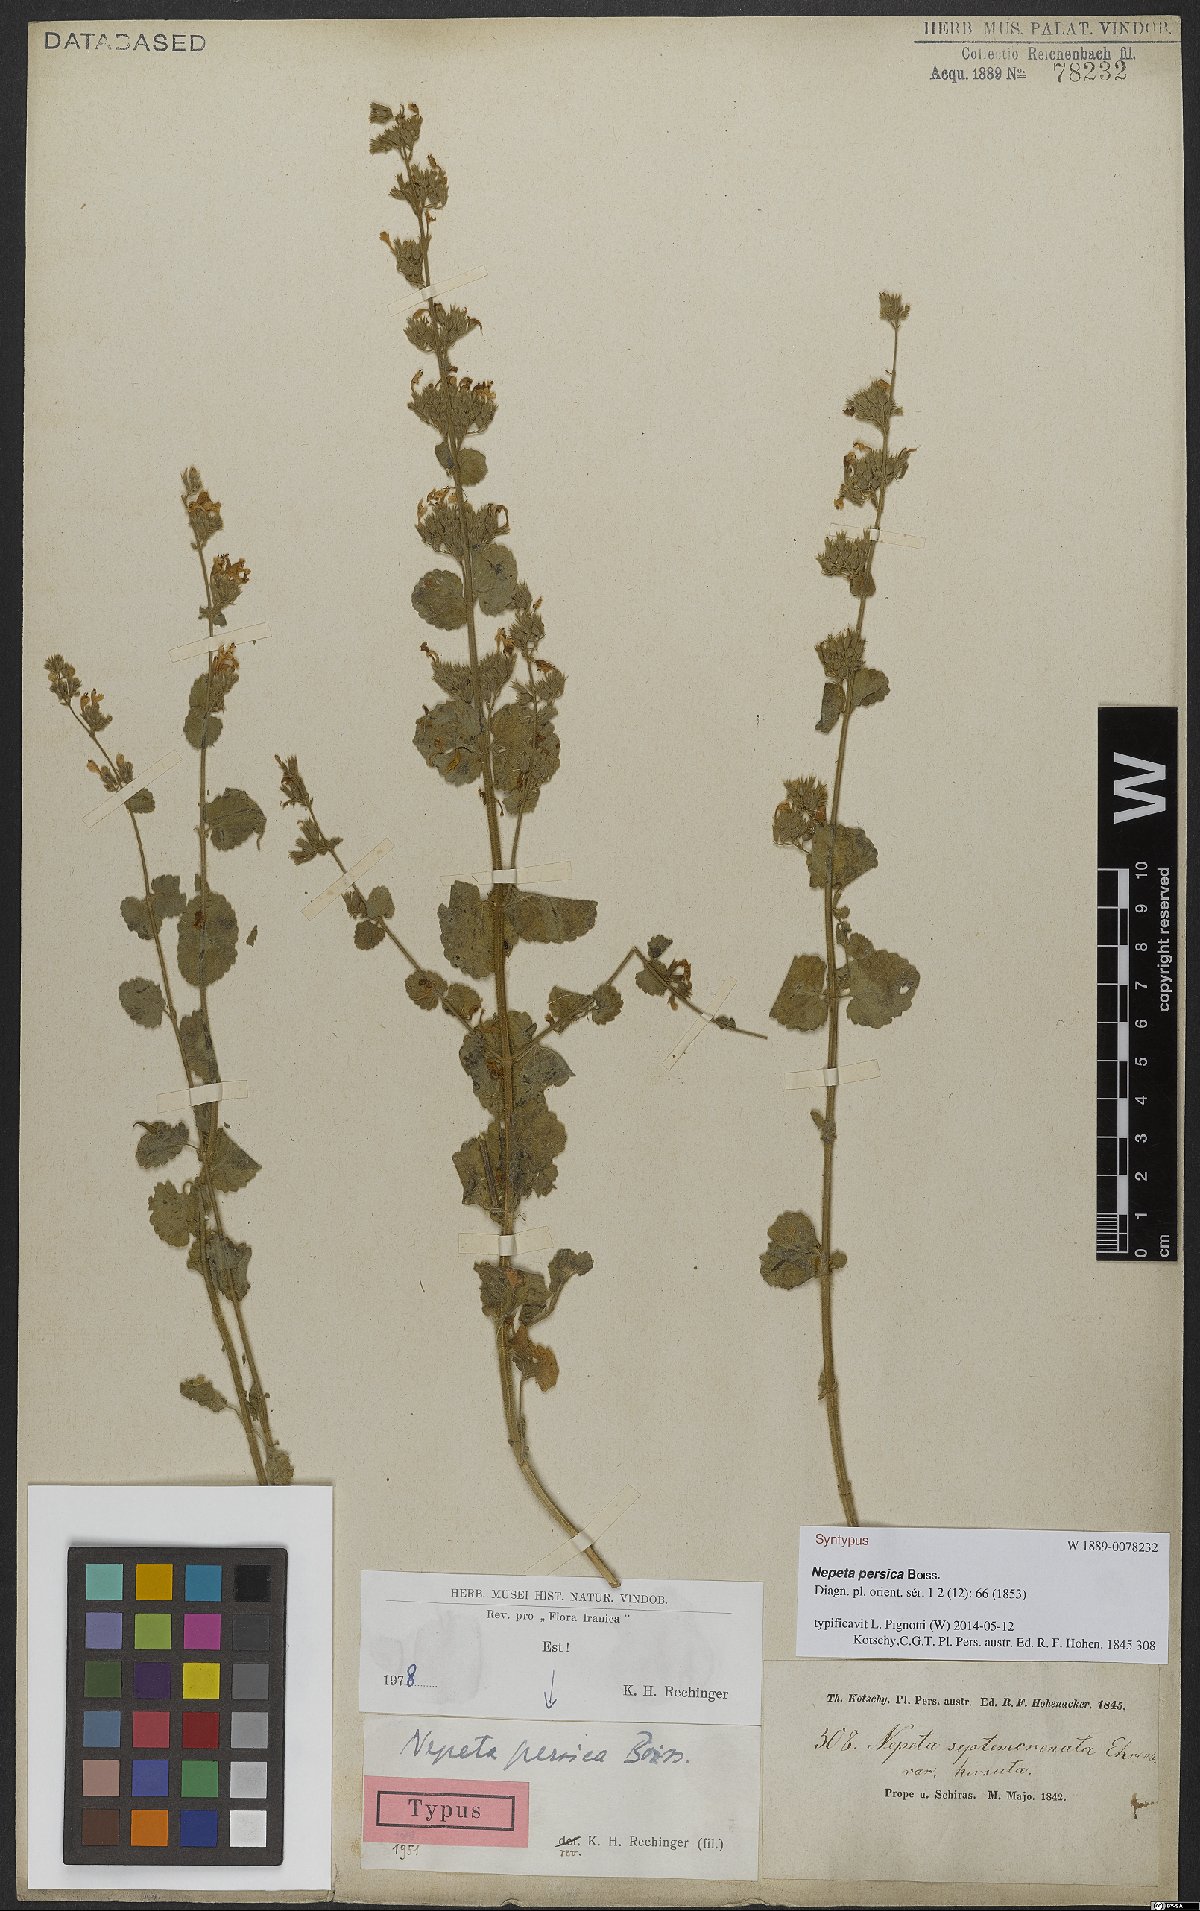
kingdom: Plantae
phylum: Tracheophyta
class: Magnoliopsida
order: Lamiales
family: Lamiaceae
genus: Nepeta
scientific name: Nepeta persica
